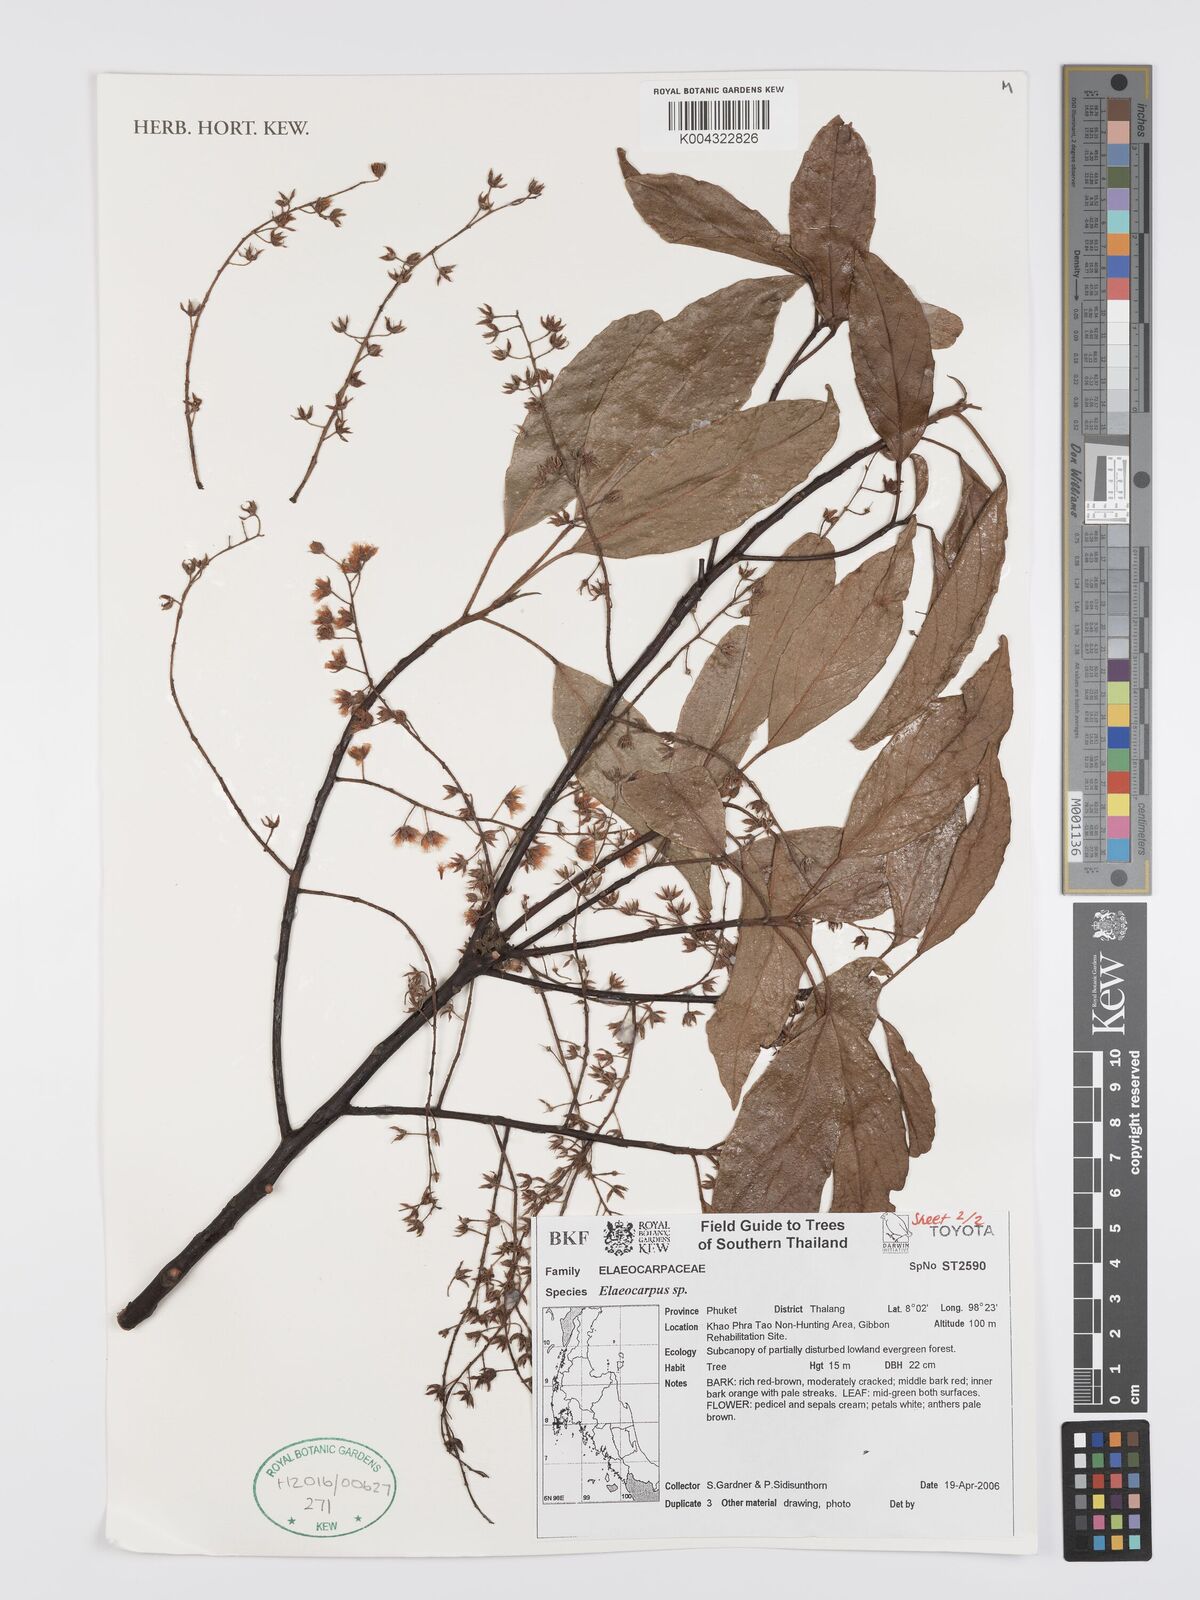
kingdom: Plantae
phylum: Tracheophyta
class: Magnoliopsida
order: Oxalidales
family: Elaeocarpaceae
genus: Elaeocarpus
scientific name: Elaeocarpus
